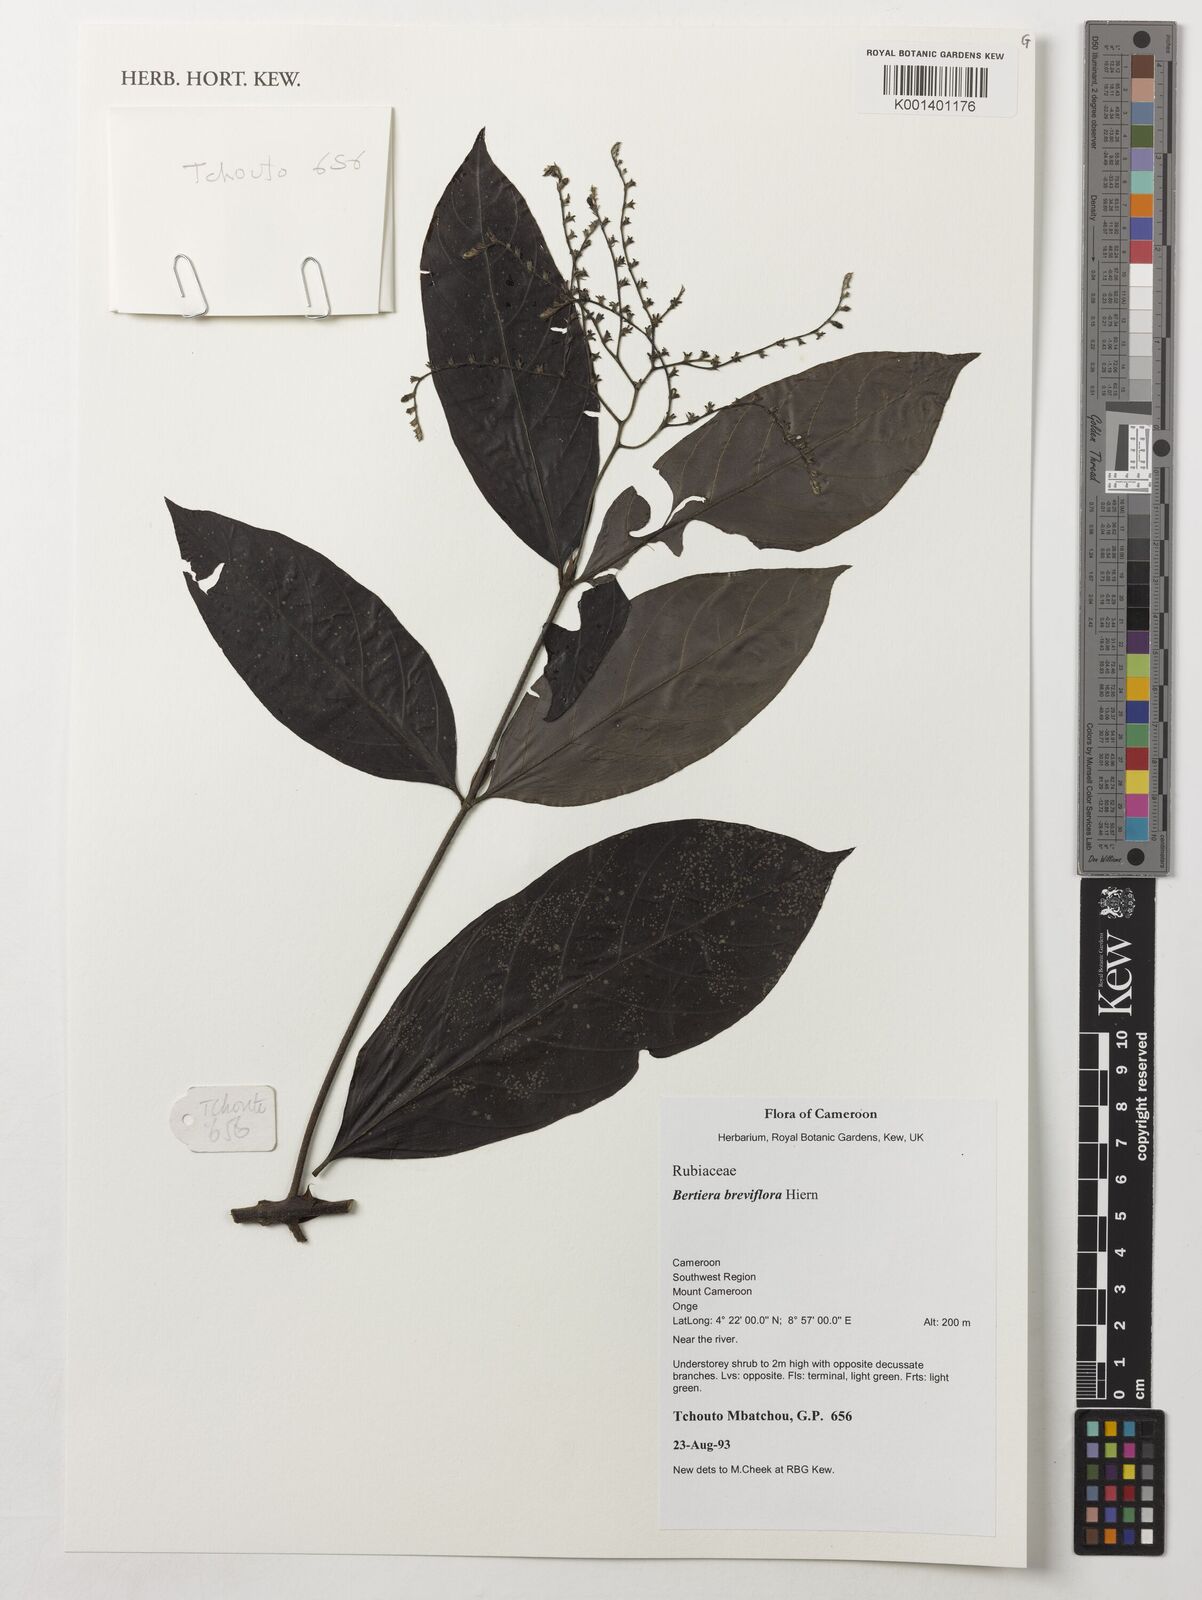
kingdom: Plantae
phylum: Tracheophyta
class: Magnoliopsida
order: Gentianales
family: Rubiaceae
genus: Bertiera
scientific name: Bertiera breviflora
